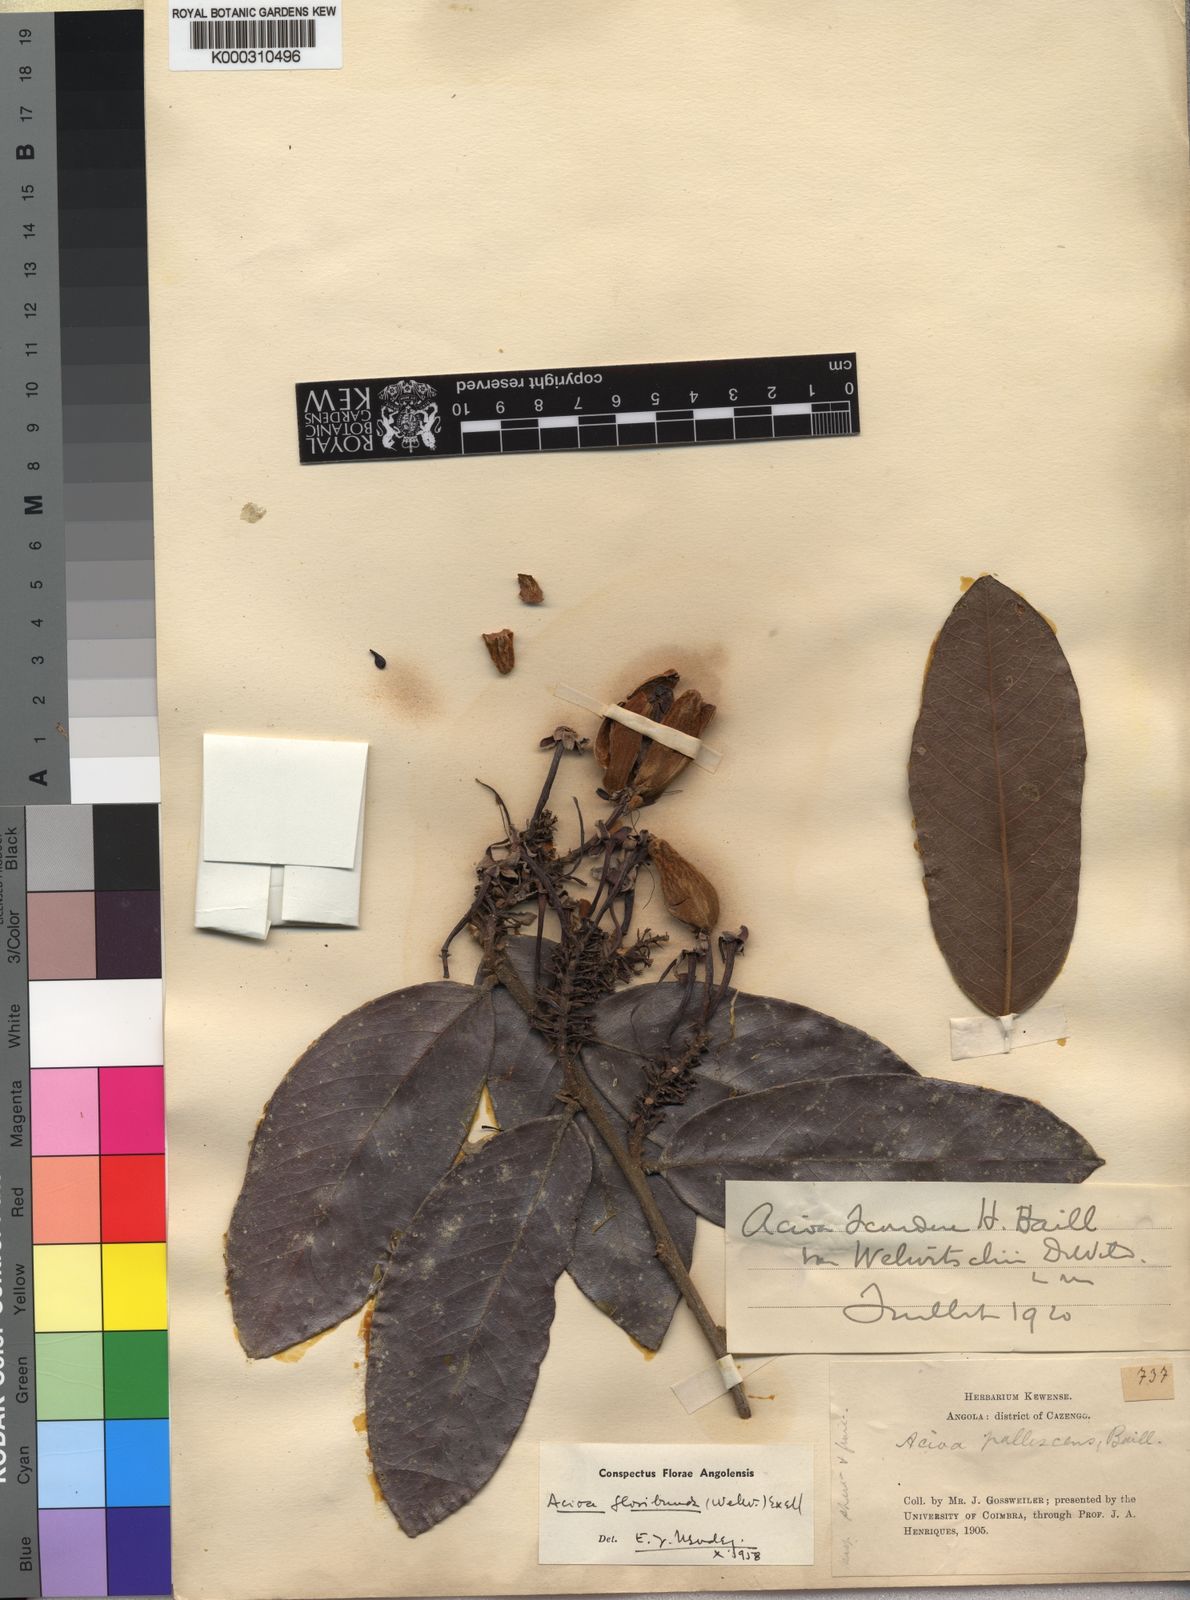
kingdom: Plantae
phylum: Tracheophyta
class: Magnoliopsida
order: Malpighiales
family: Chrysobalanaceae
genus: Dactyladenia
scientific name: Dactyladenia floribunda
